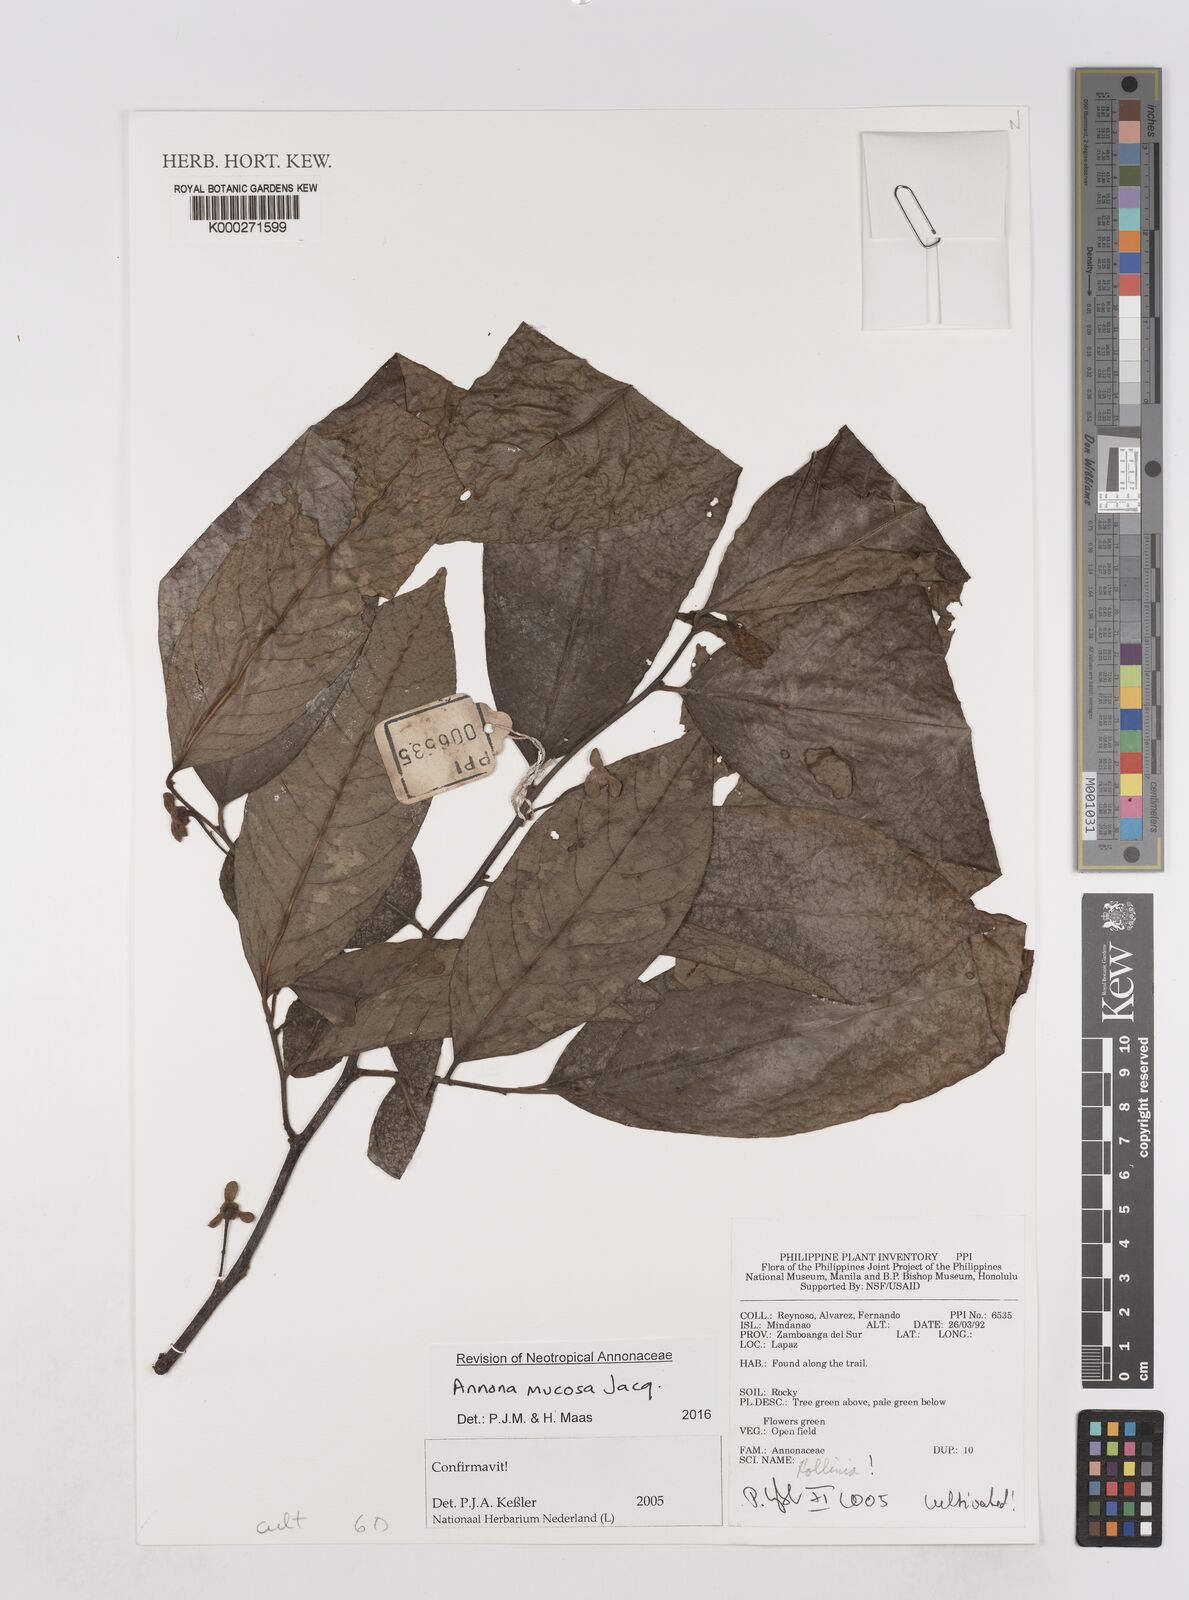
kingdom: Plantae
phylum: Tracheophyta
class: Magnoliopsida
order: Magnoliales
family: Annonaceae
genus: Annona
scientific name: Annona
